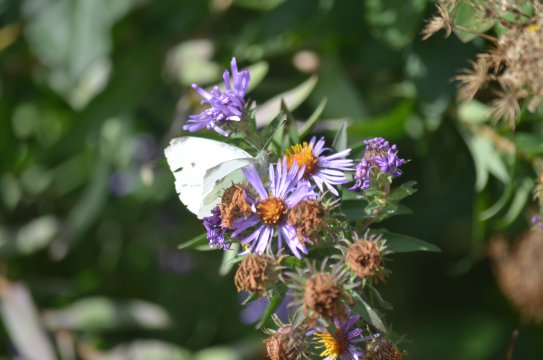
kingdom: Animalia
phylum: Arthropoda
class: Insecta
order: Lepidoptera
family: Pieridae
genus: Pieris
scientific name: Pieris rapae
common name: Cabbage White
